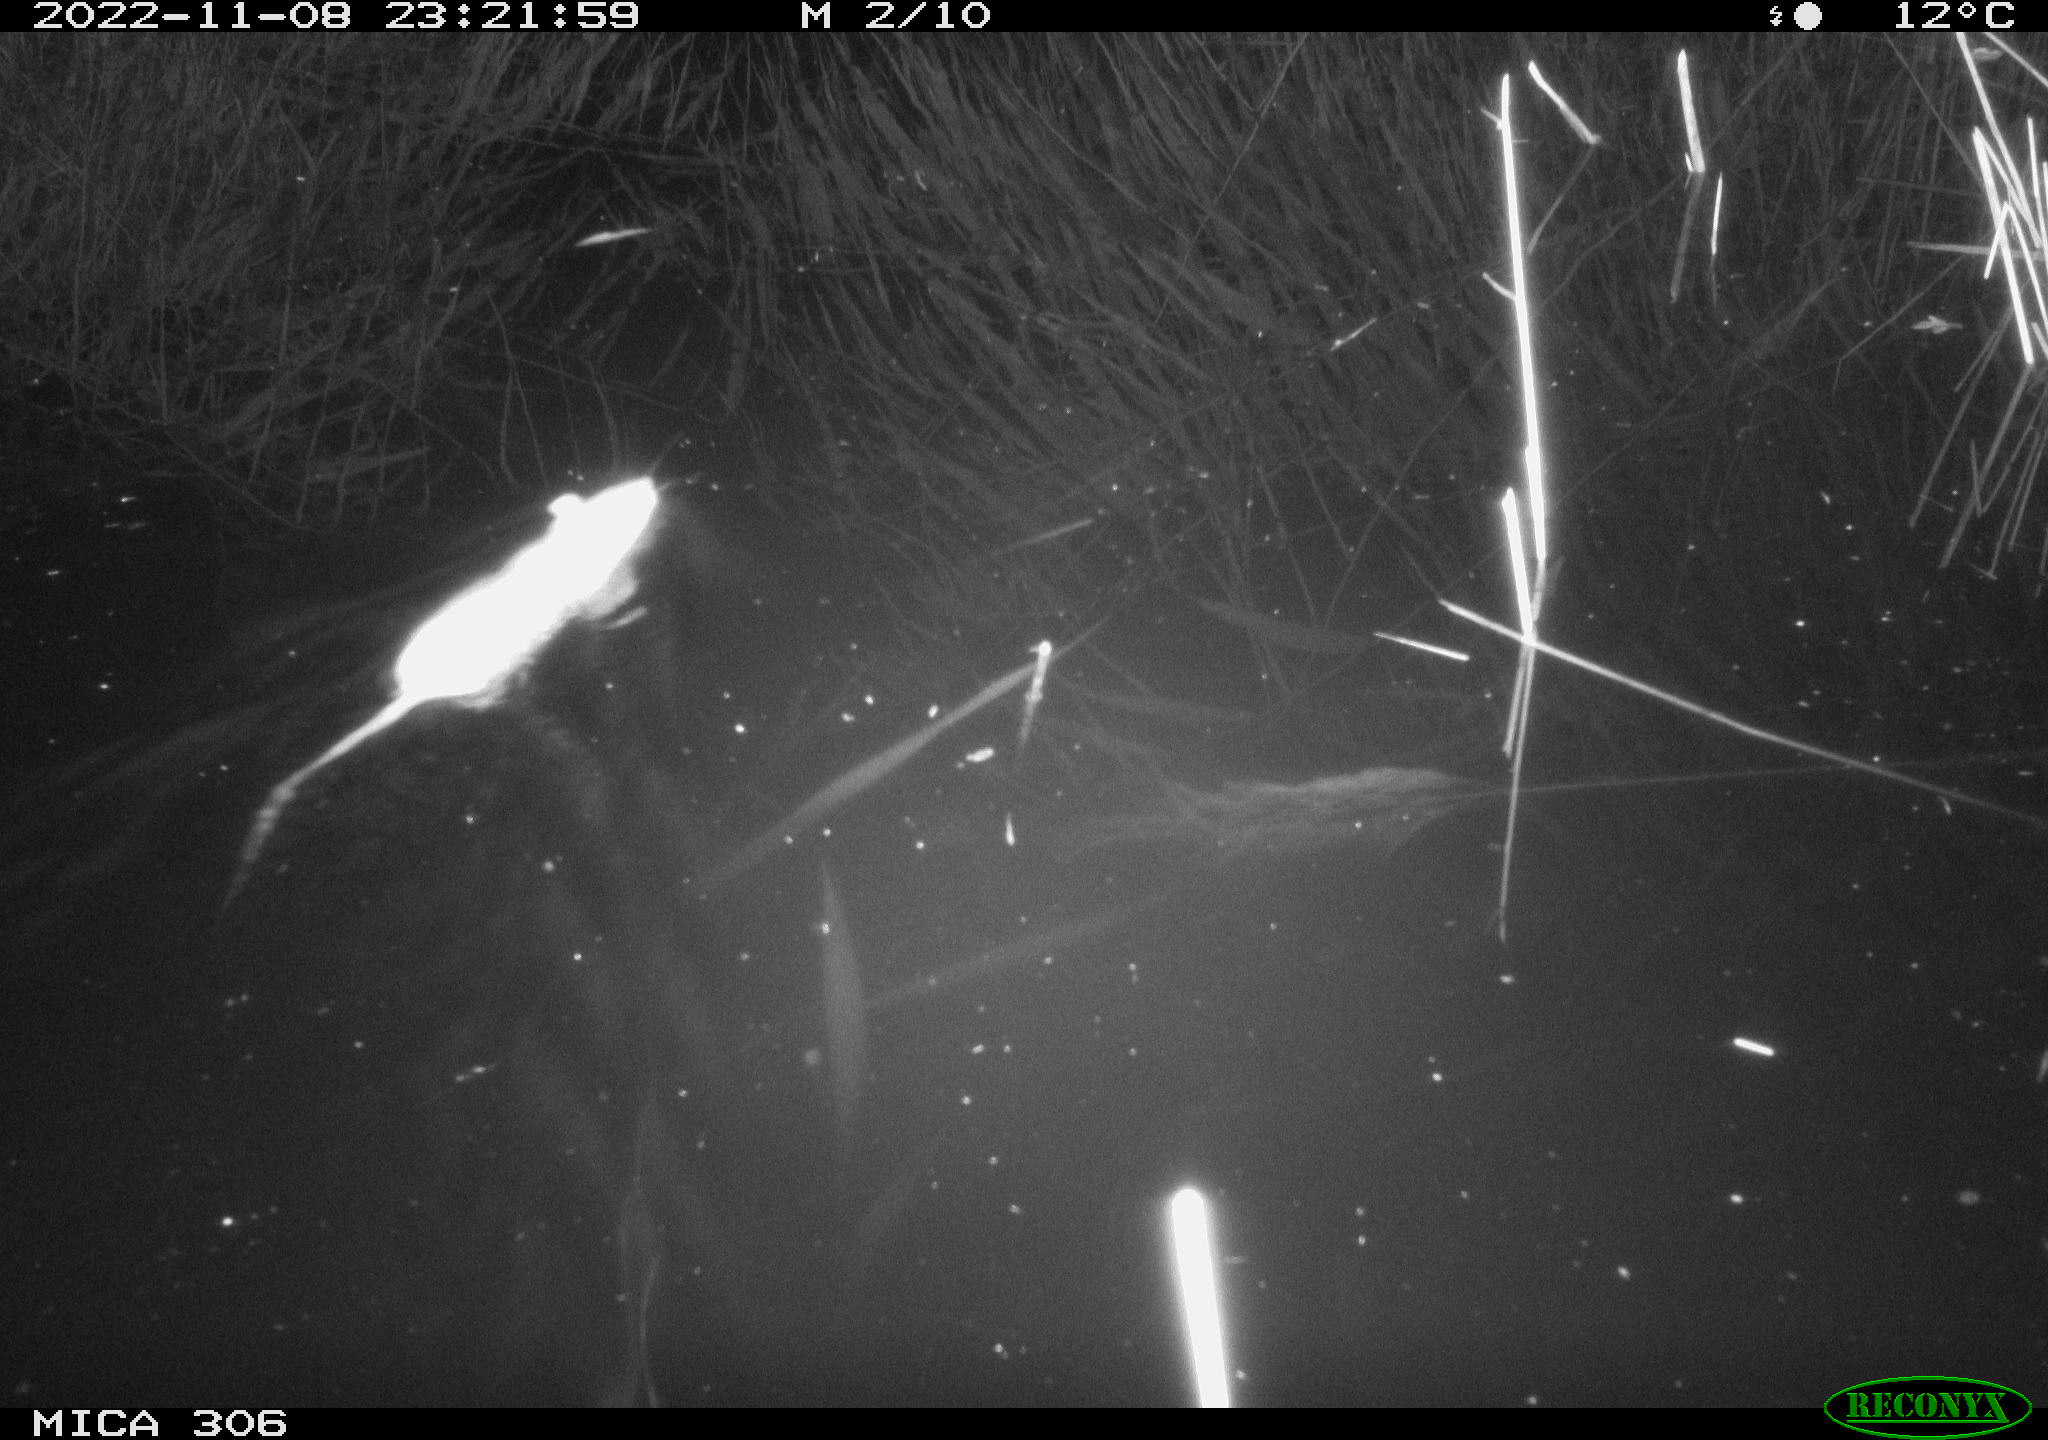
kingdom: Animalia
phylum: Chordata
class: Mammalia
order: Rodentia
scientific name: Rodentia
